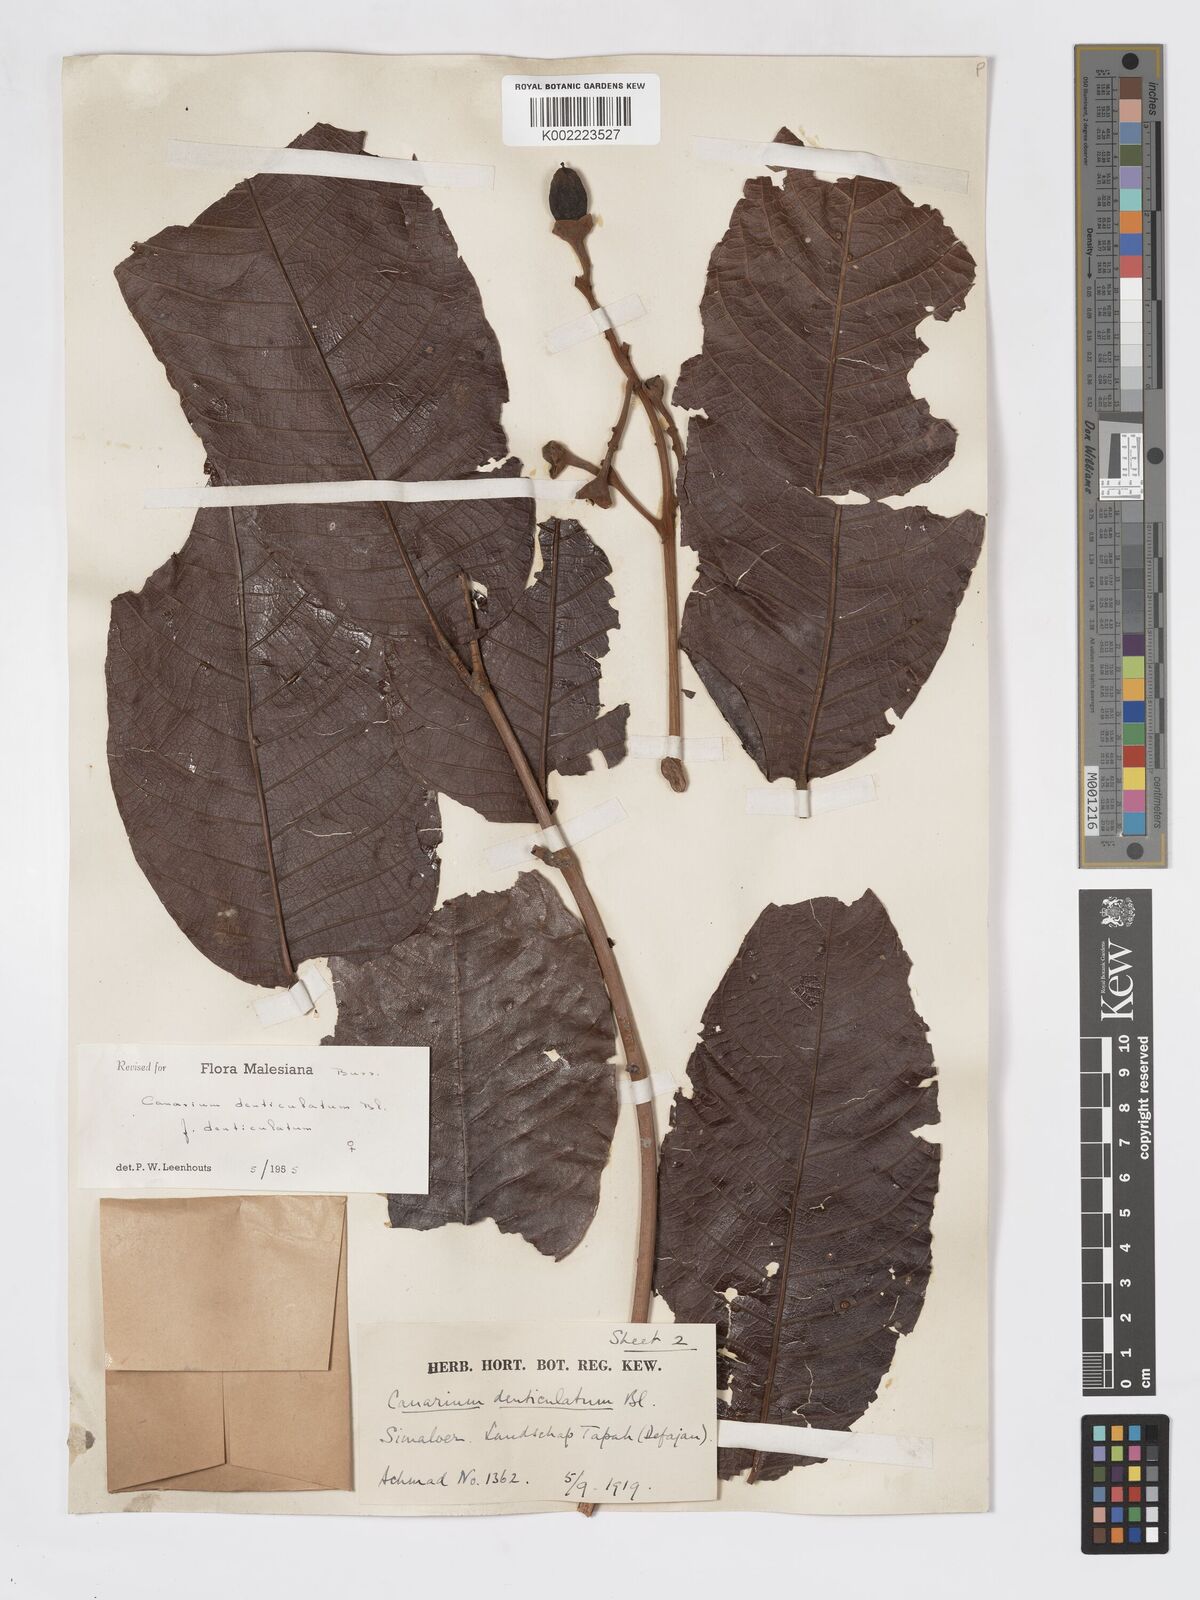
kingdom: Plantae
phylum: Tracheophyta
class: Magnoliopsida
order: Sapindales
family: Burseraceae
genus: Canarium
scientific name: Canarium denticulatum
